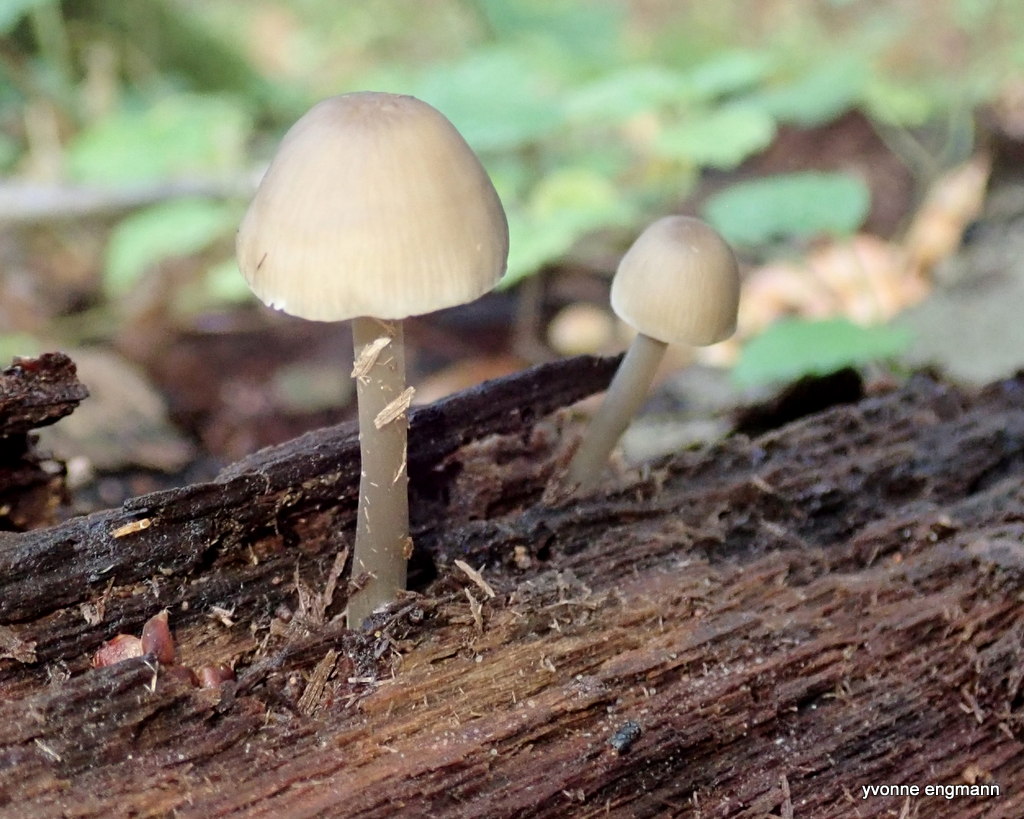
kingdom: Fungi
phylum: Basidiomycota
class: Agaricomycetes
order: Agaricales
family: Mycenaceae
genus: Mycena
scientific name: Mycena galericulata
